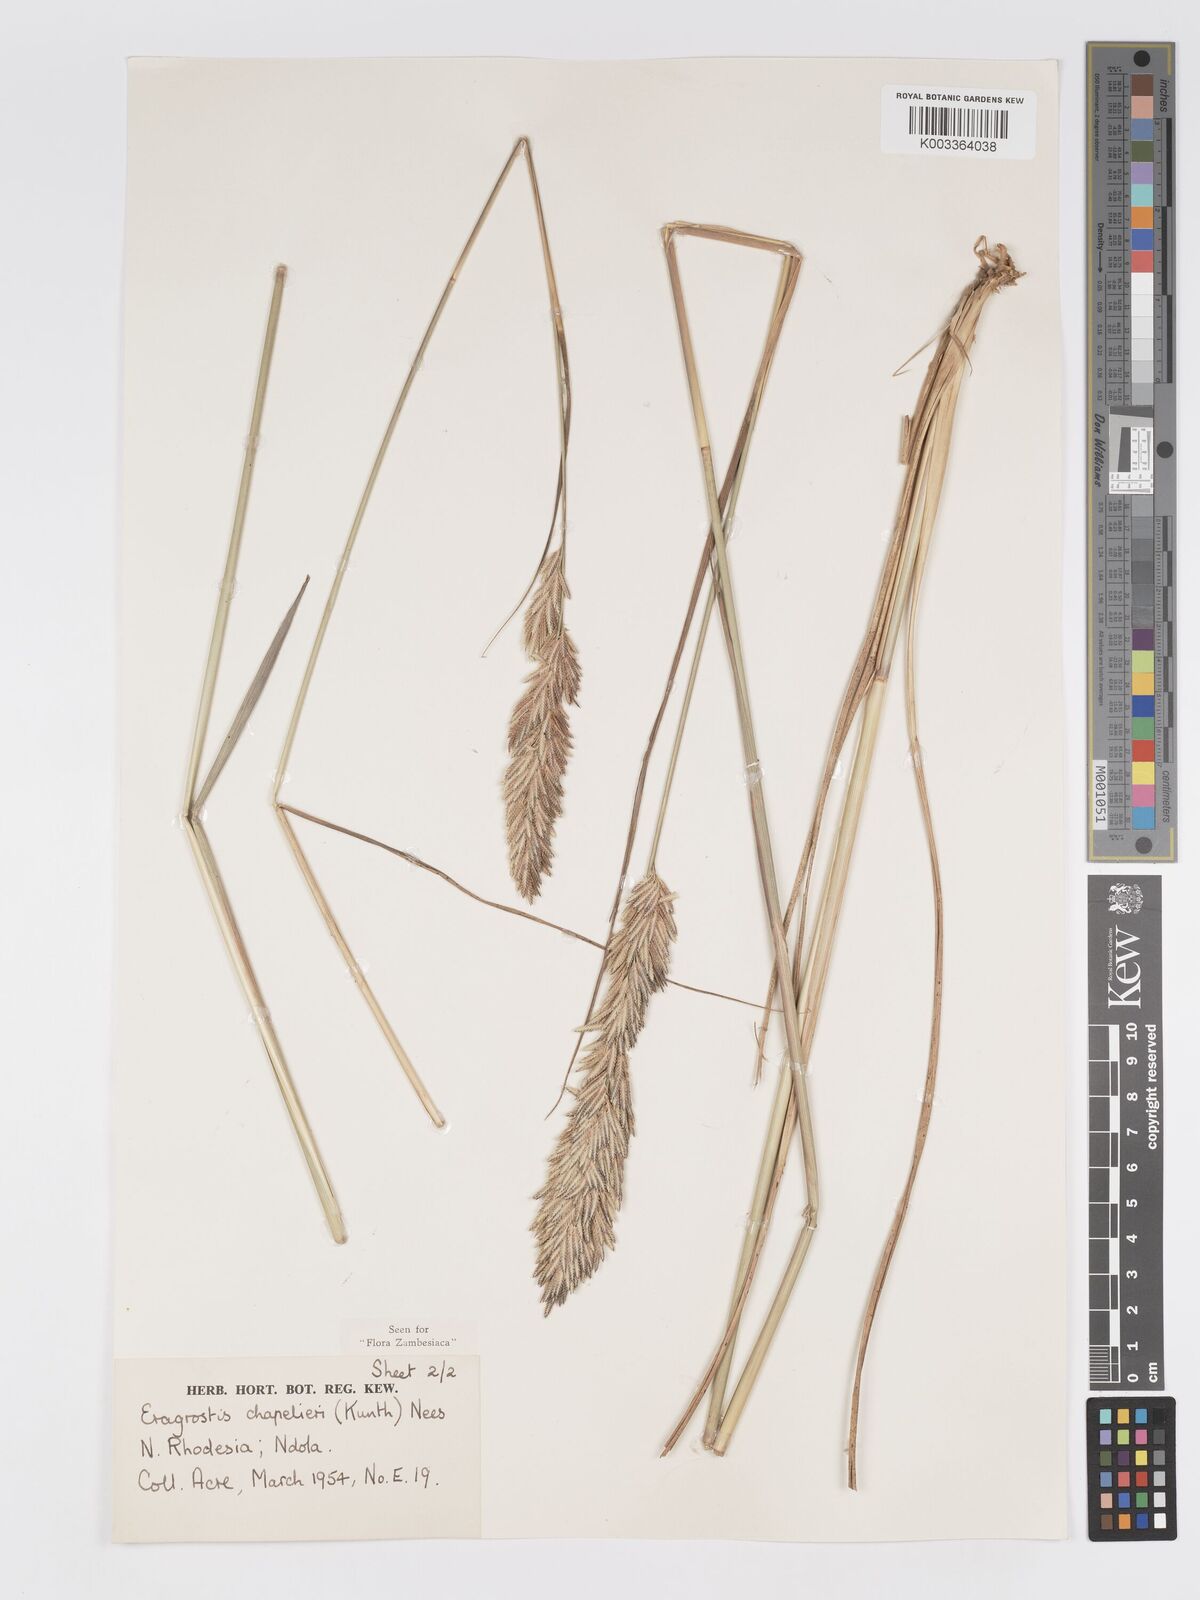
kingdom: Plantae
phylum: Tracheophyta
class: Liliopsida
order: Poales
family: Poaceae
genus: Eragrostis
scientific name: Eragrostis chapelieri
